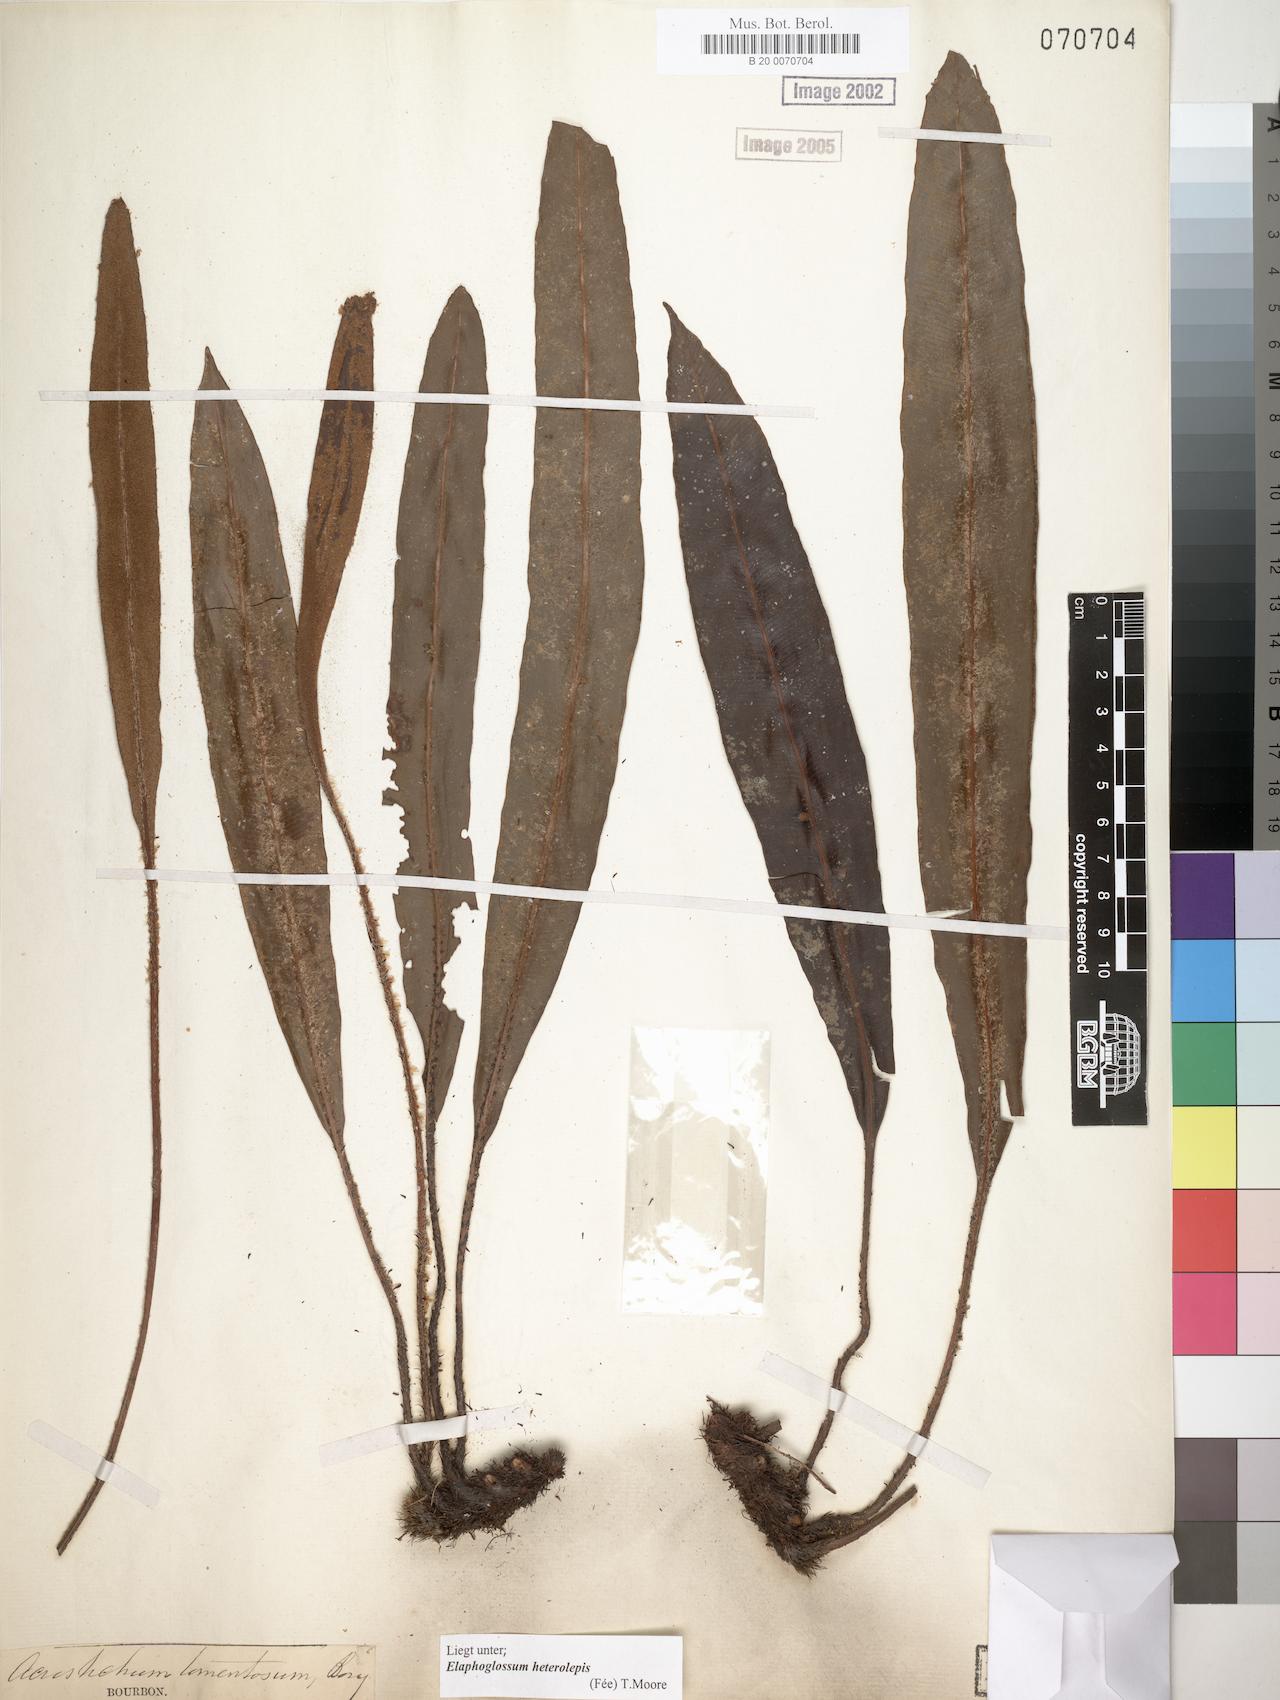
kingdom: Plantae
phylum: Tracheophyta
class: Polypodiopsida
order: Polypodiales
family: Dryopteridaceae
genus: Elaphoglossum
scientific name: Elaphoglossum heterolepis
